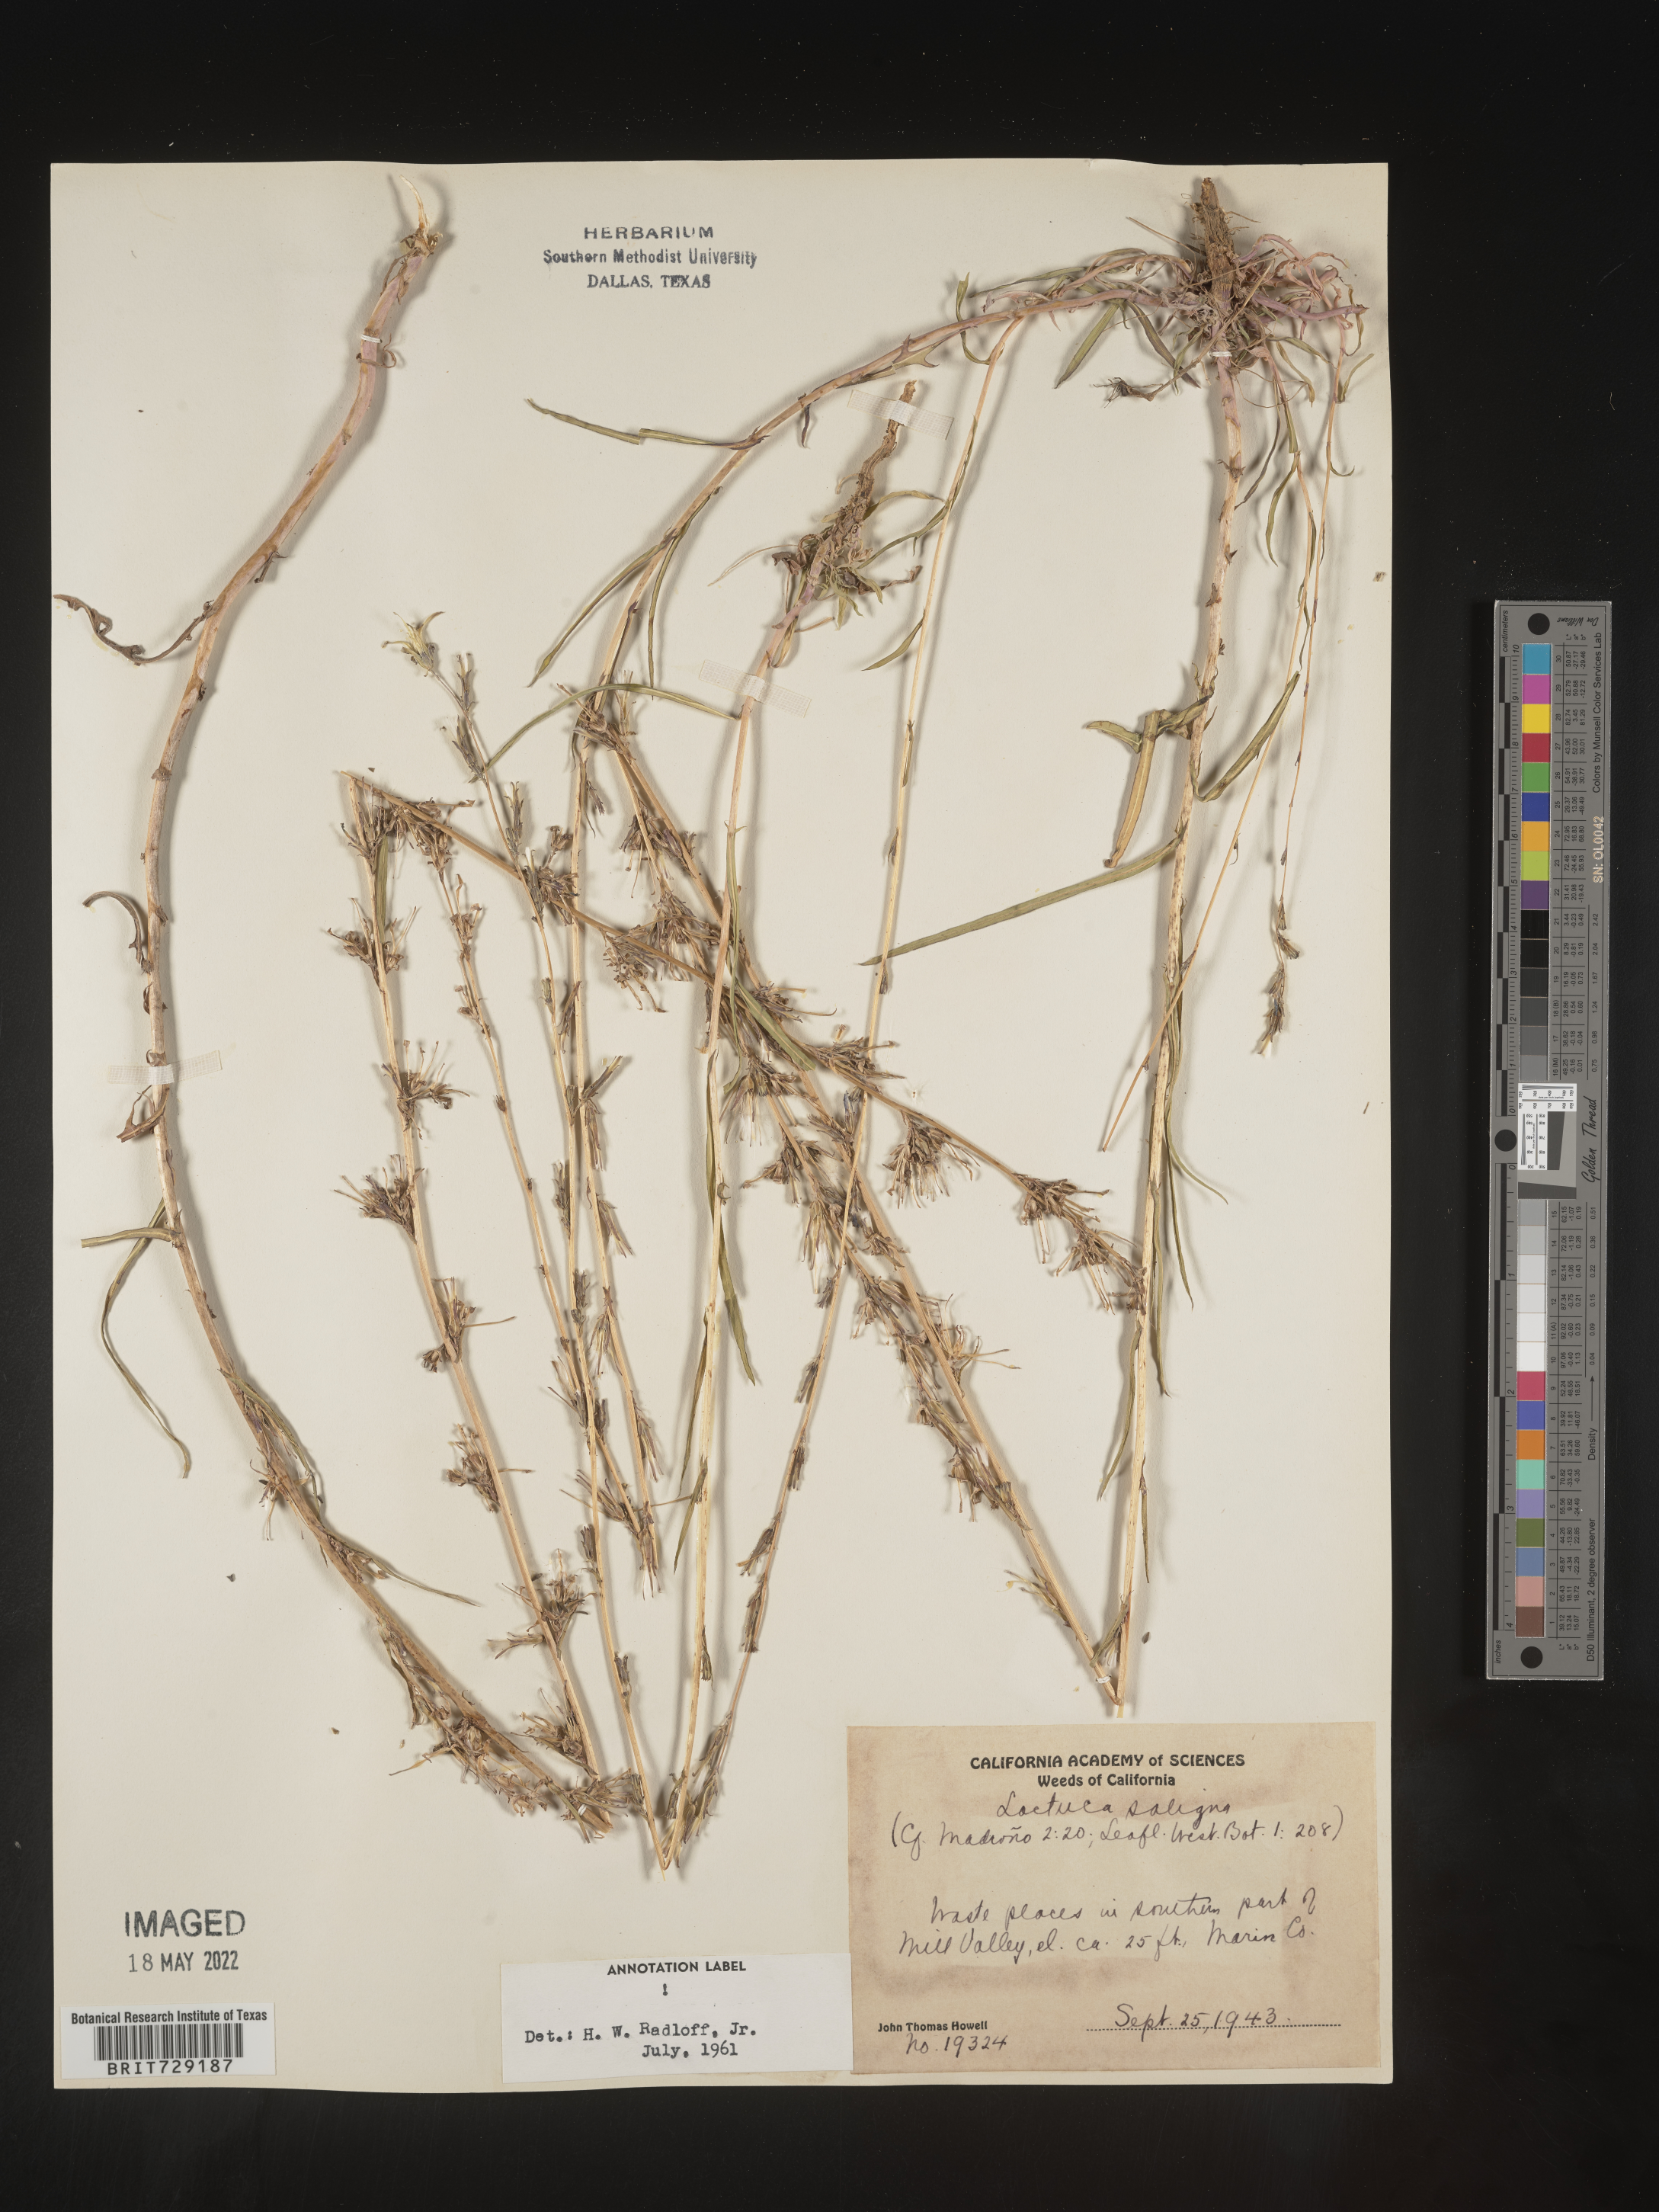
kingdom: Plantae
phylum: Tracheophyta
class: Magnoliopsida
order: Asterales
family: Asteraceae
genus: Lactuca
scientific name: Lactuca saligna
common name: Wild lettuce
